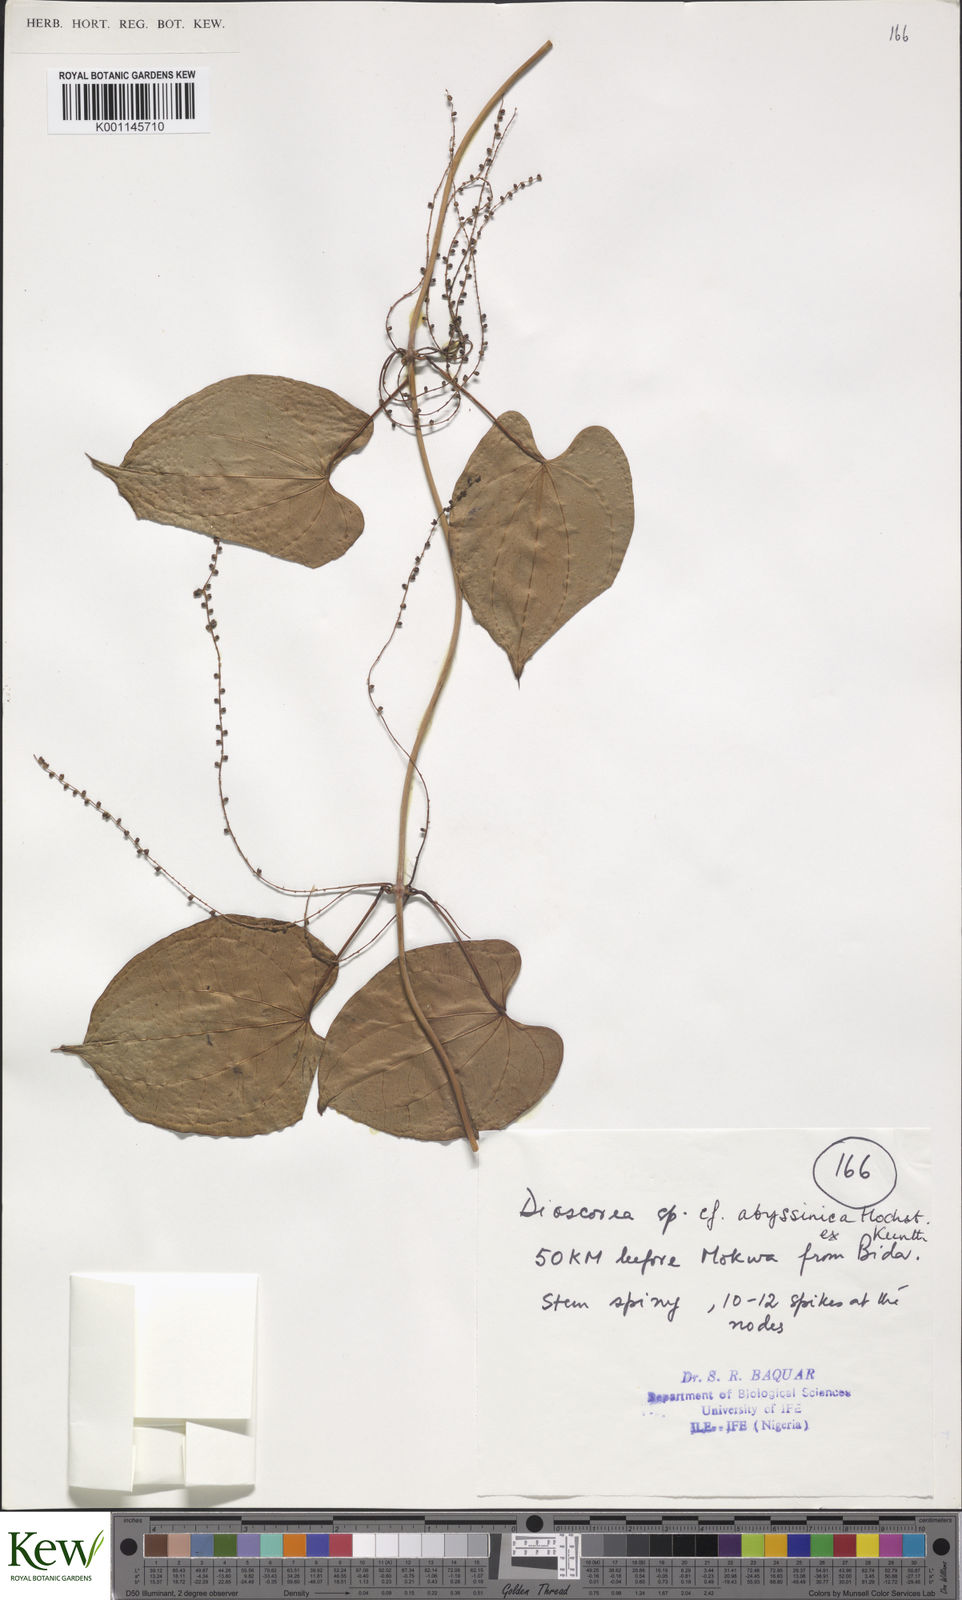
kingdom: Plantae
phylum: Tracheophyta
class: Liliopsida
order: Dioscoreales
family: Dioscoreaceae
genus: Dioscorea
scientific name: Dioscorea abyssinica
